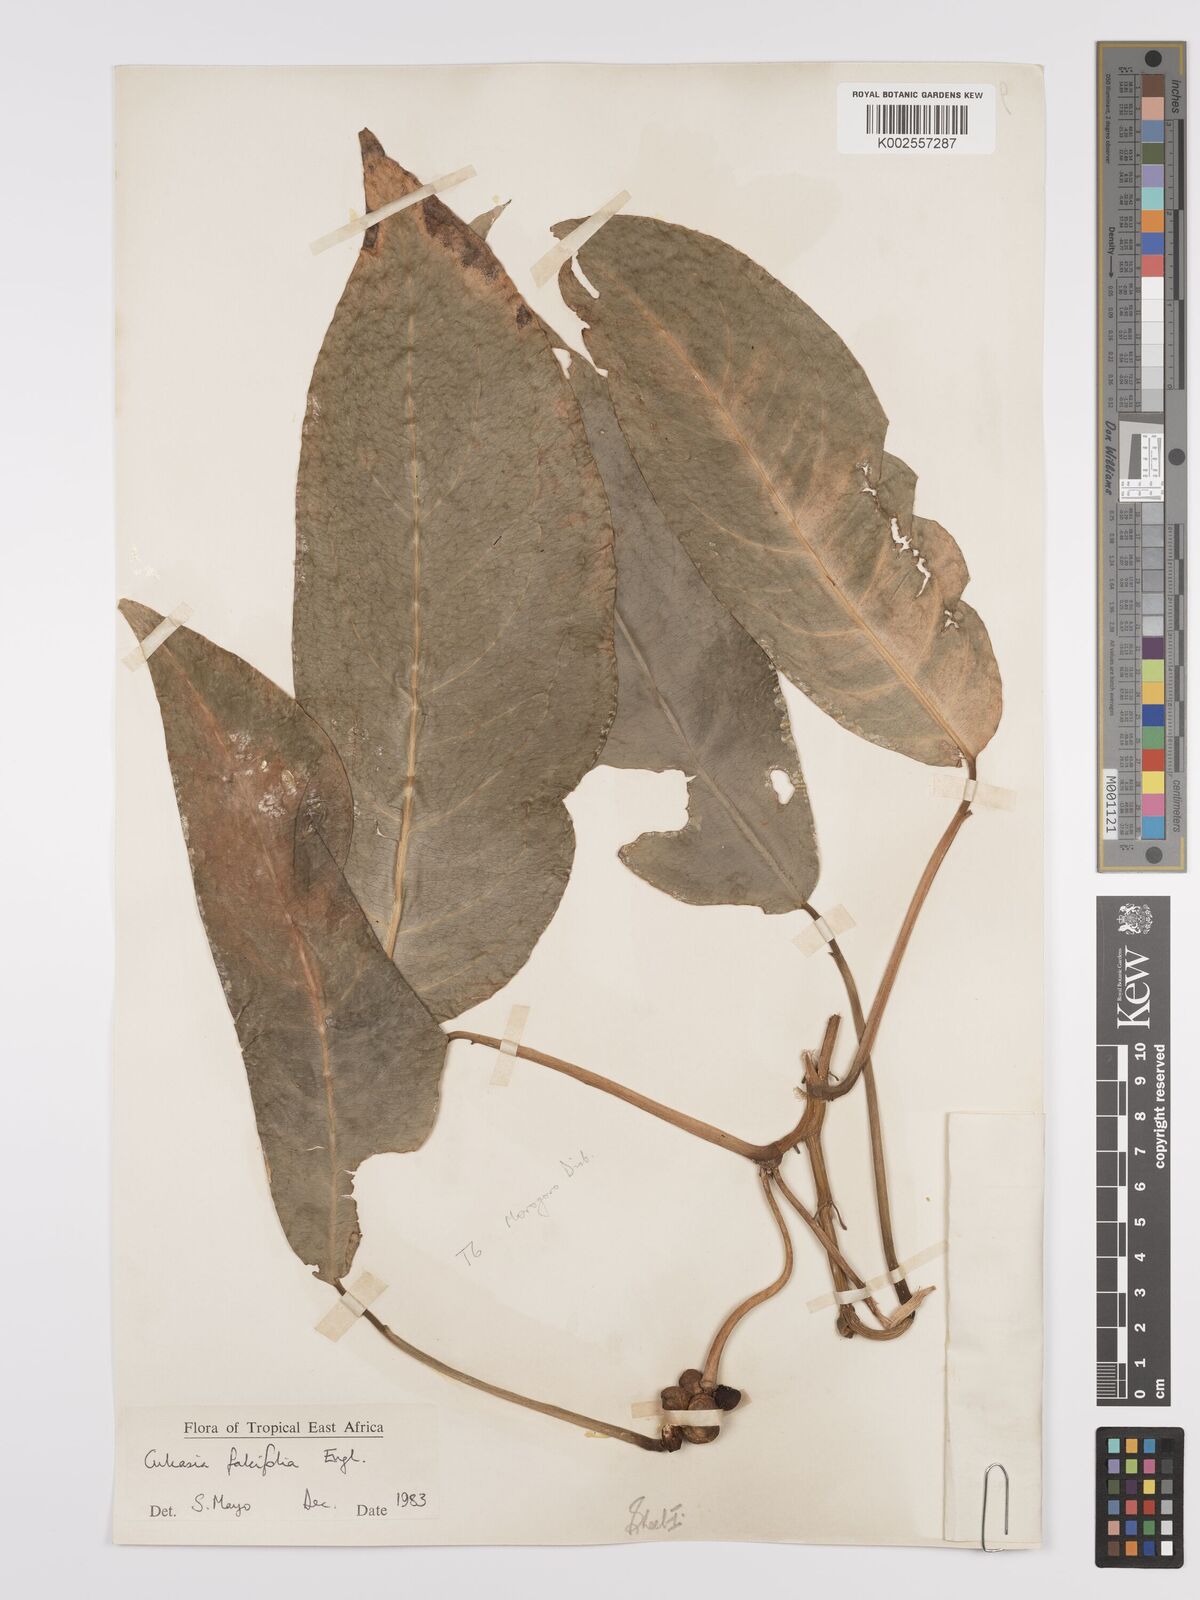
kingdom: Plantae
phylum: Tracheophyta
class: Liliopsida
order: Alismatales
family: Araceae
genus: Culcasia
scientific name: Culcasia falcifolia
